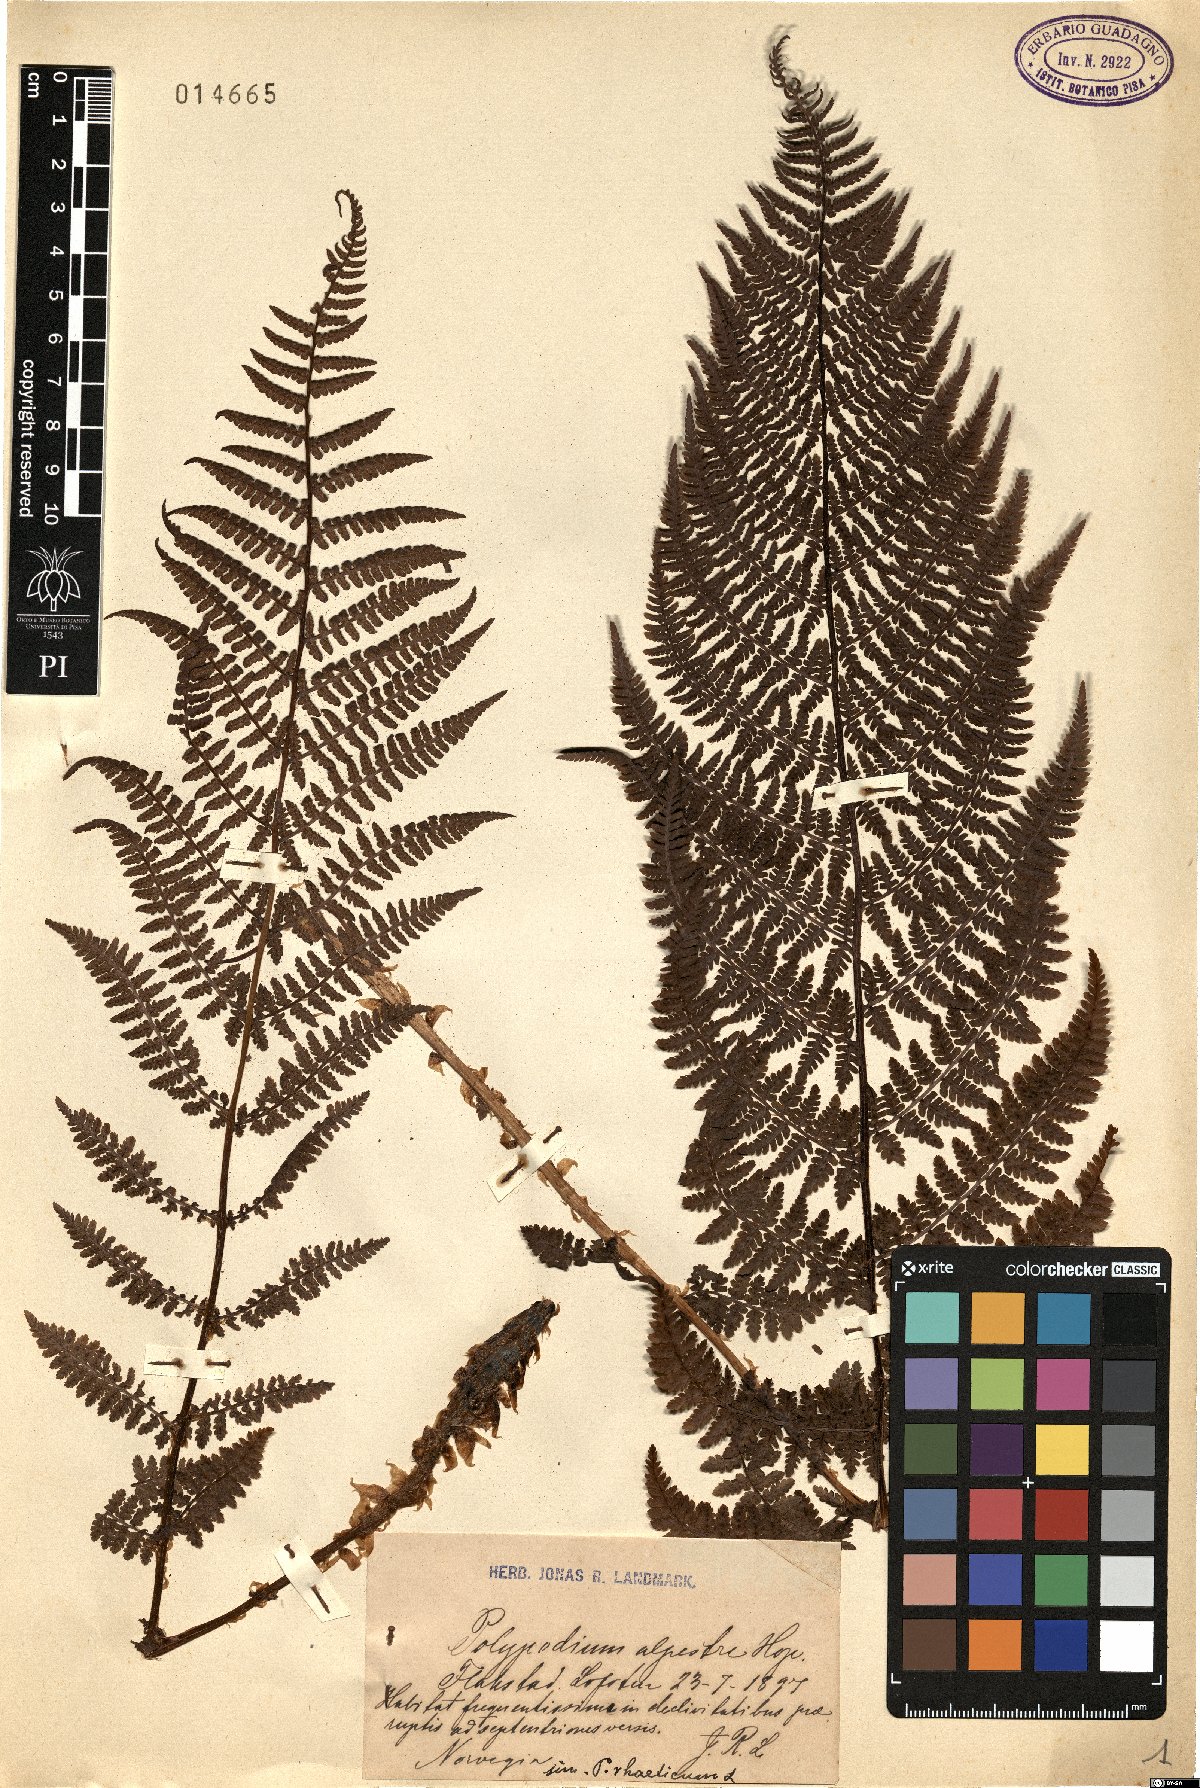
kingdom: Plantae
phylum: Tracheophyta
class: Polypodiopsida
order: Polypodiales
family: Athyriaceae
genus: Pseudathyrium
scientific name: Pseudathyrium alpestre
